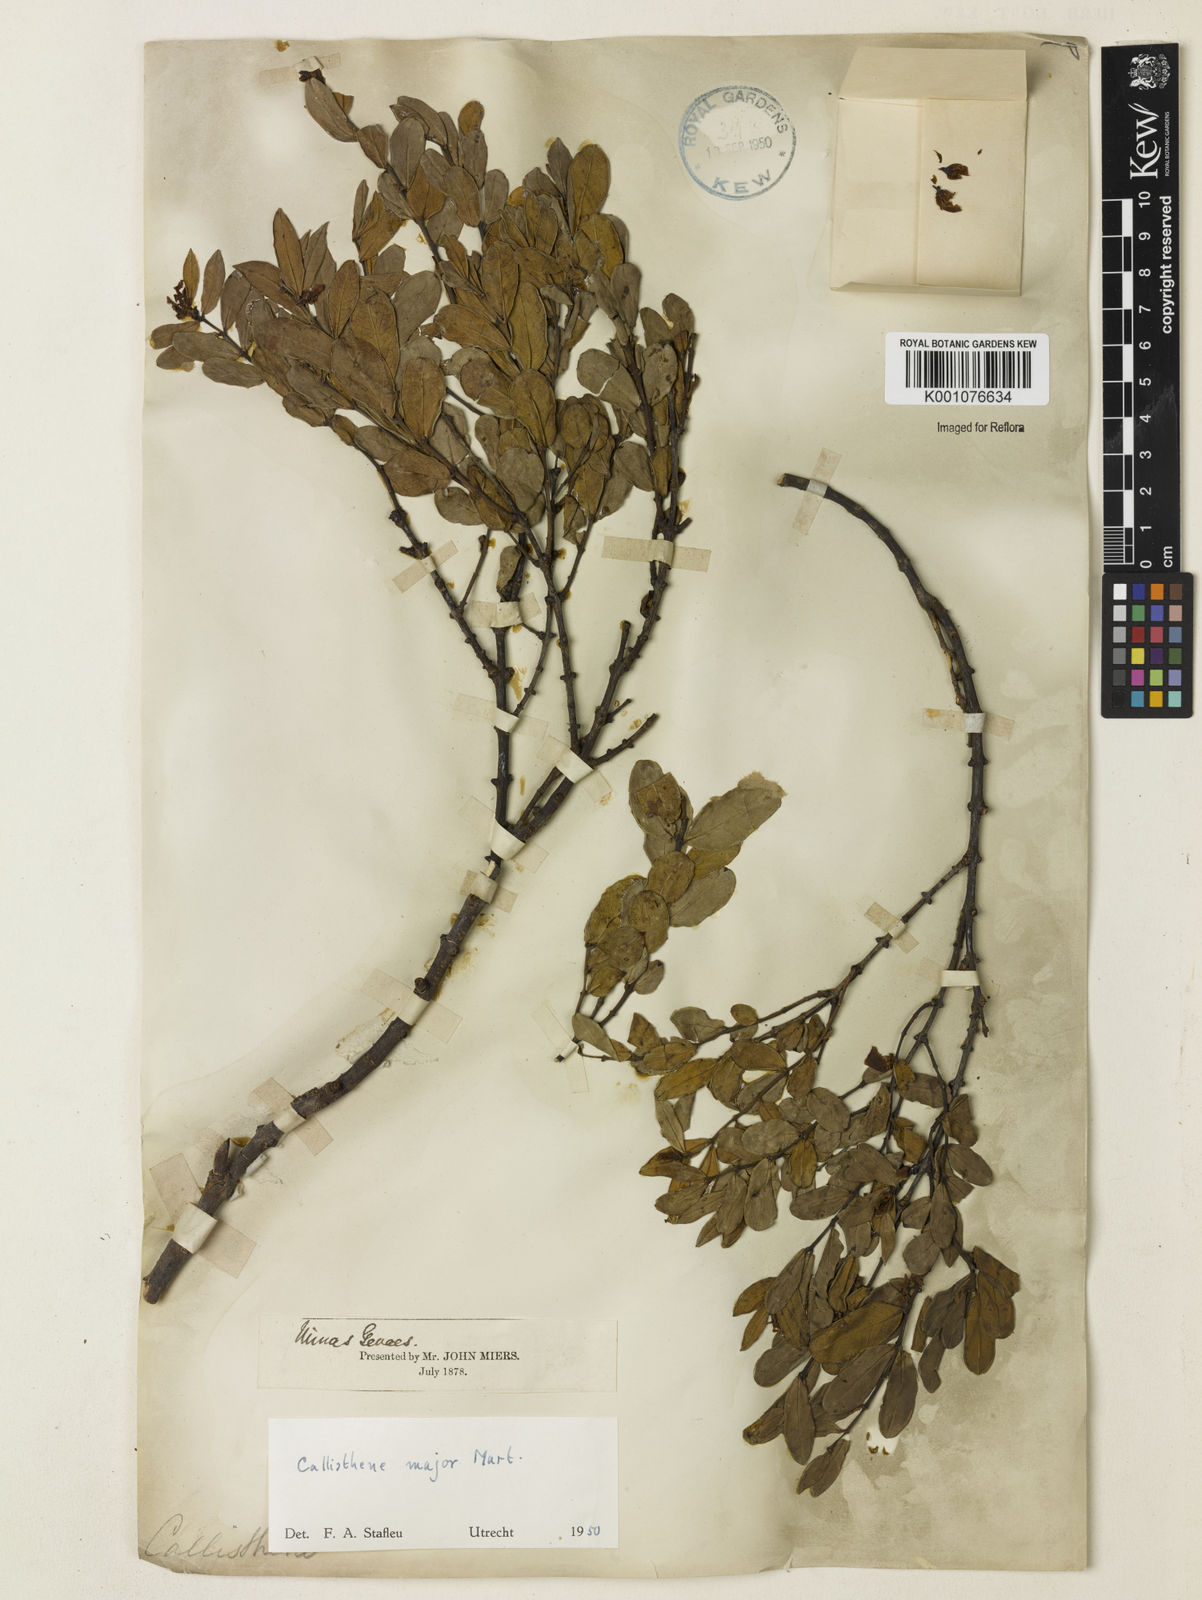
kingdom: Plantae
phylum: Tracheophyta
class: Magnoliopsida
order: Myrtales
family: Vochysiaceae
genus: Callisthene
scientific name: Callisthene major
